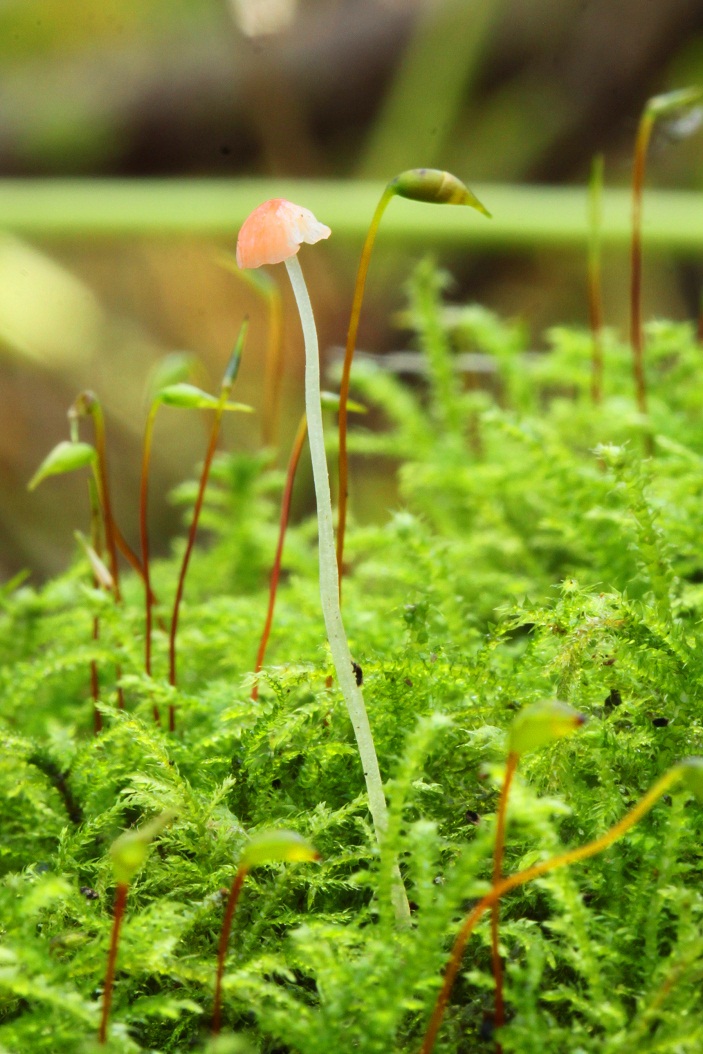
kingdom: Fungi
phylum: Basidiomycota
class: Agaricomycetes
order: Agaricales
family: Mycenaceae
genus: Mycena
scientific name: Mycena acicula
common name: orange huesvamp
